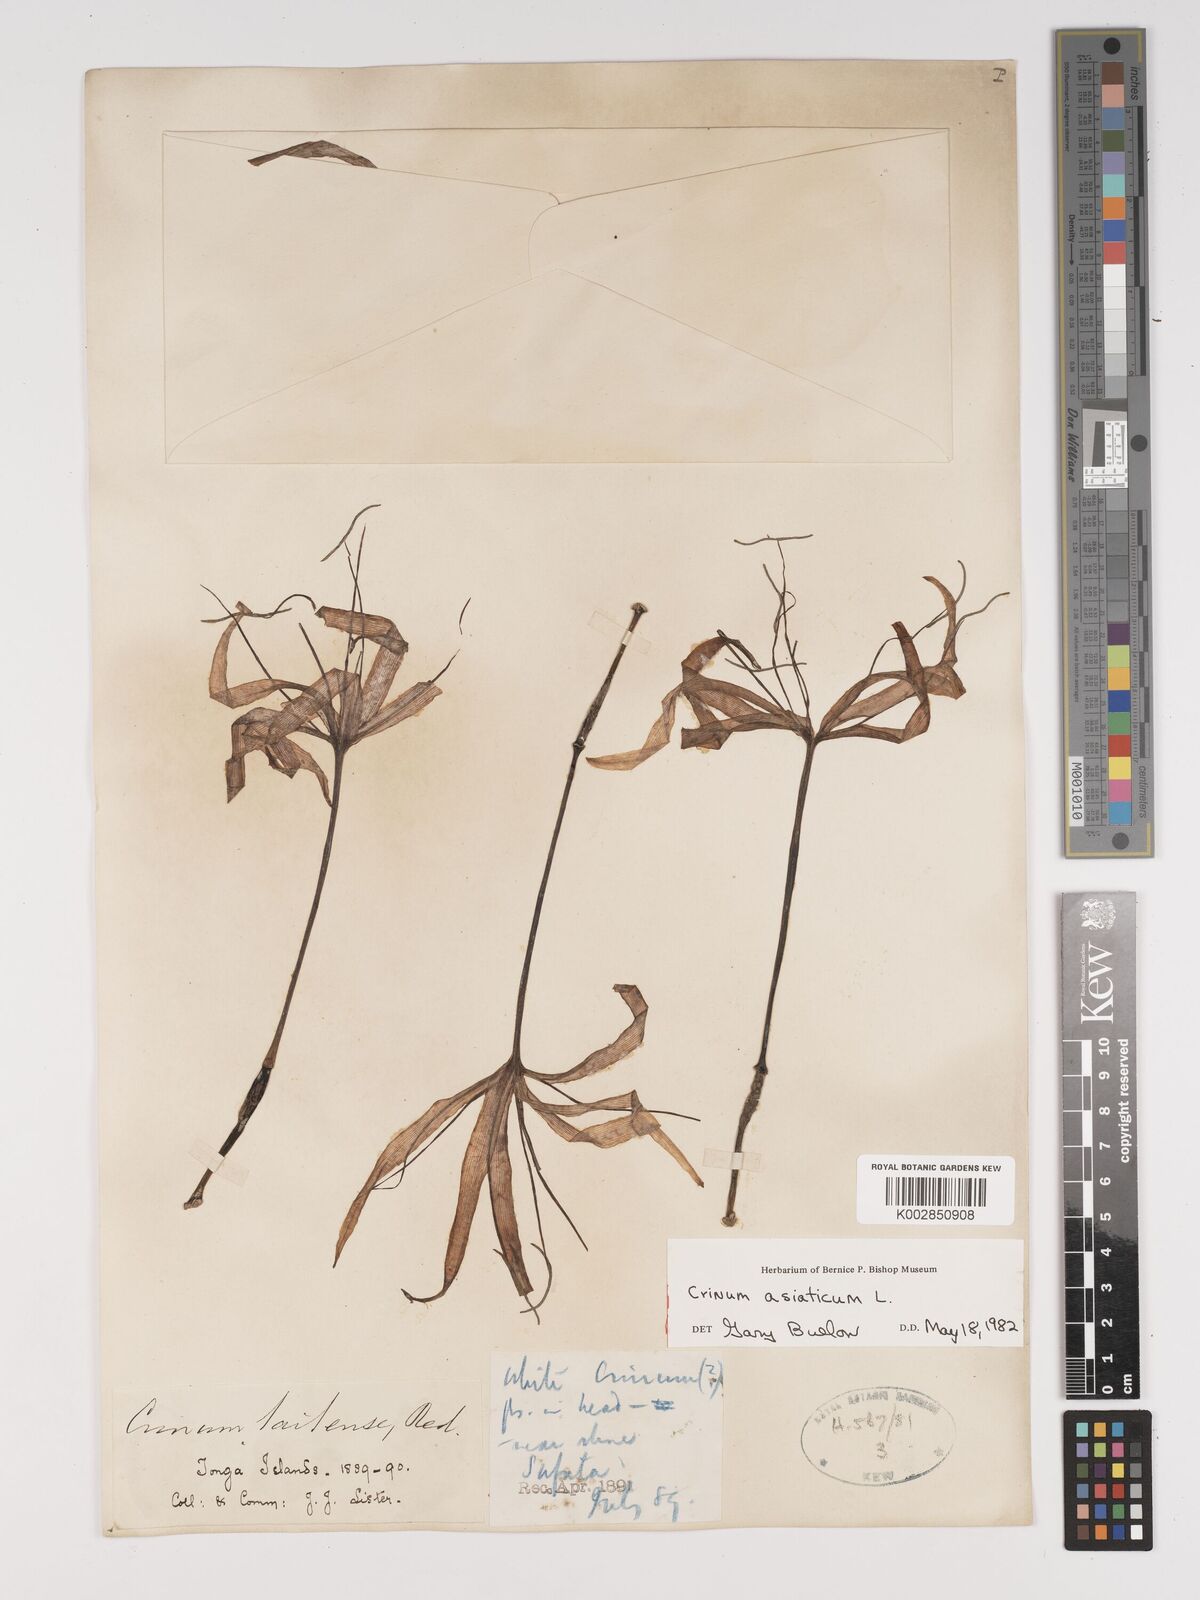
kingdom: Plantae
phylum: Tracheophyta
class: Liliopsida
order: Asparagales
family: Amaryllidaceae
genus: Crinum
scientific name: Crinum asiaticum
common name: Poisonbulb
